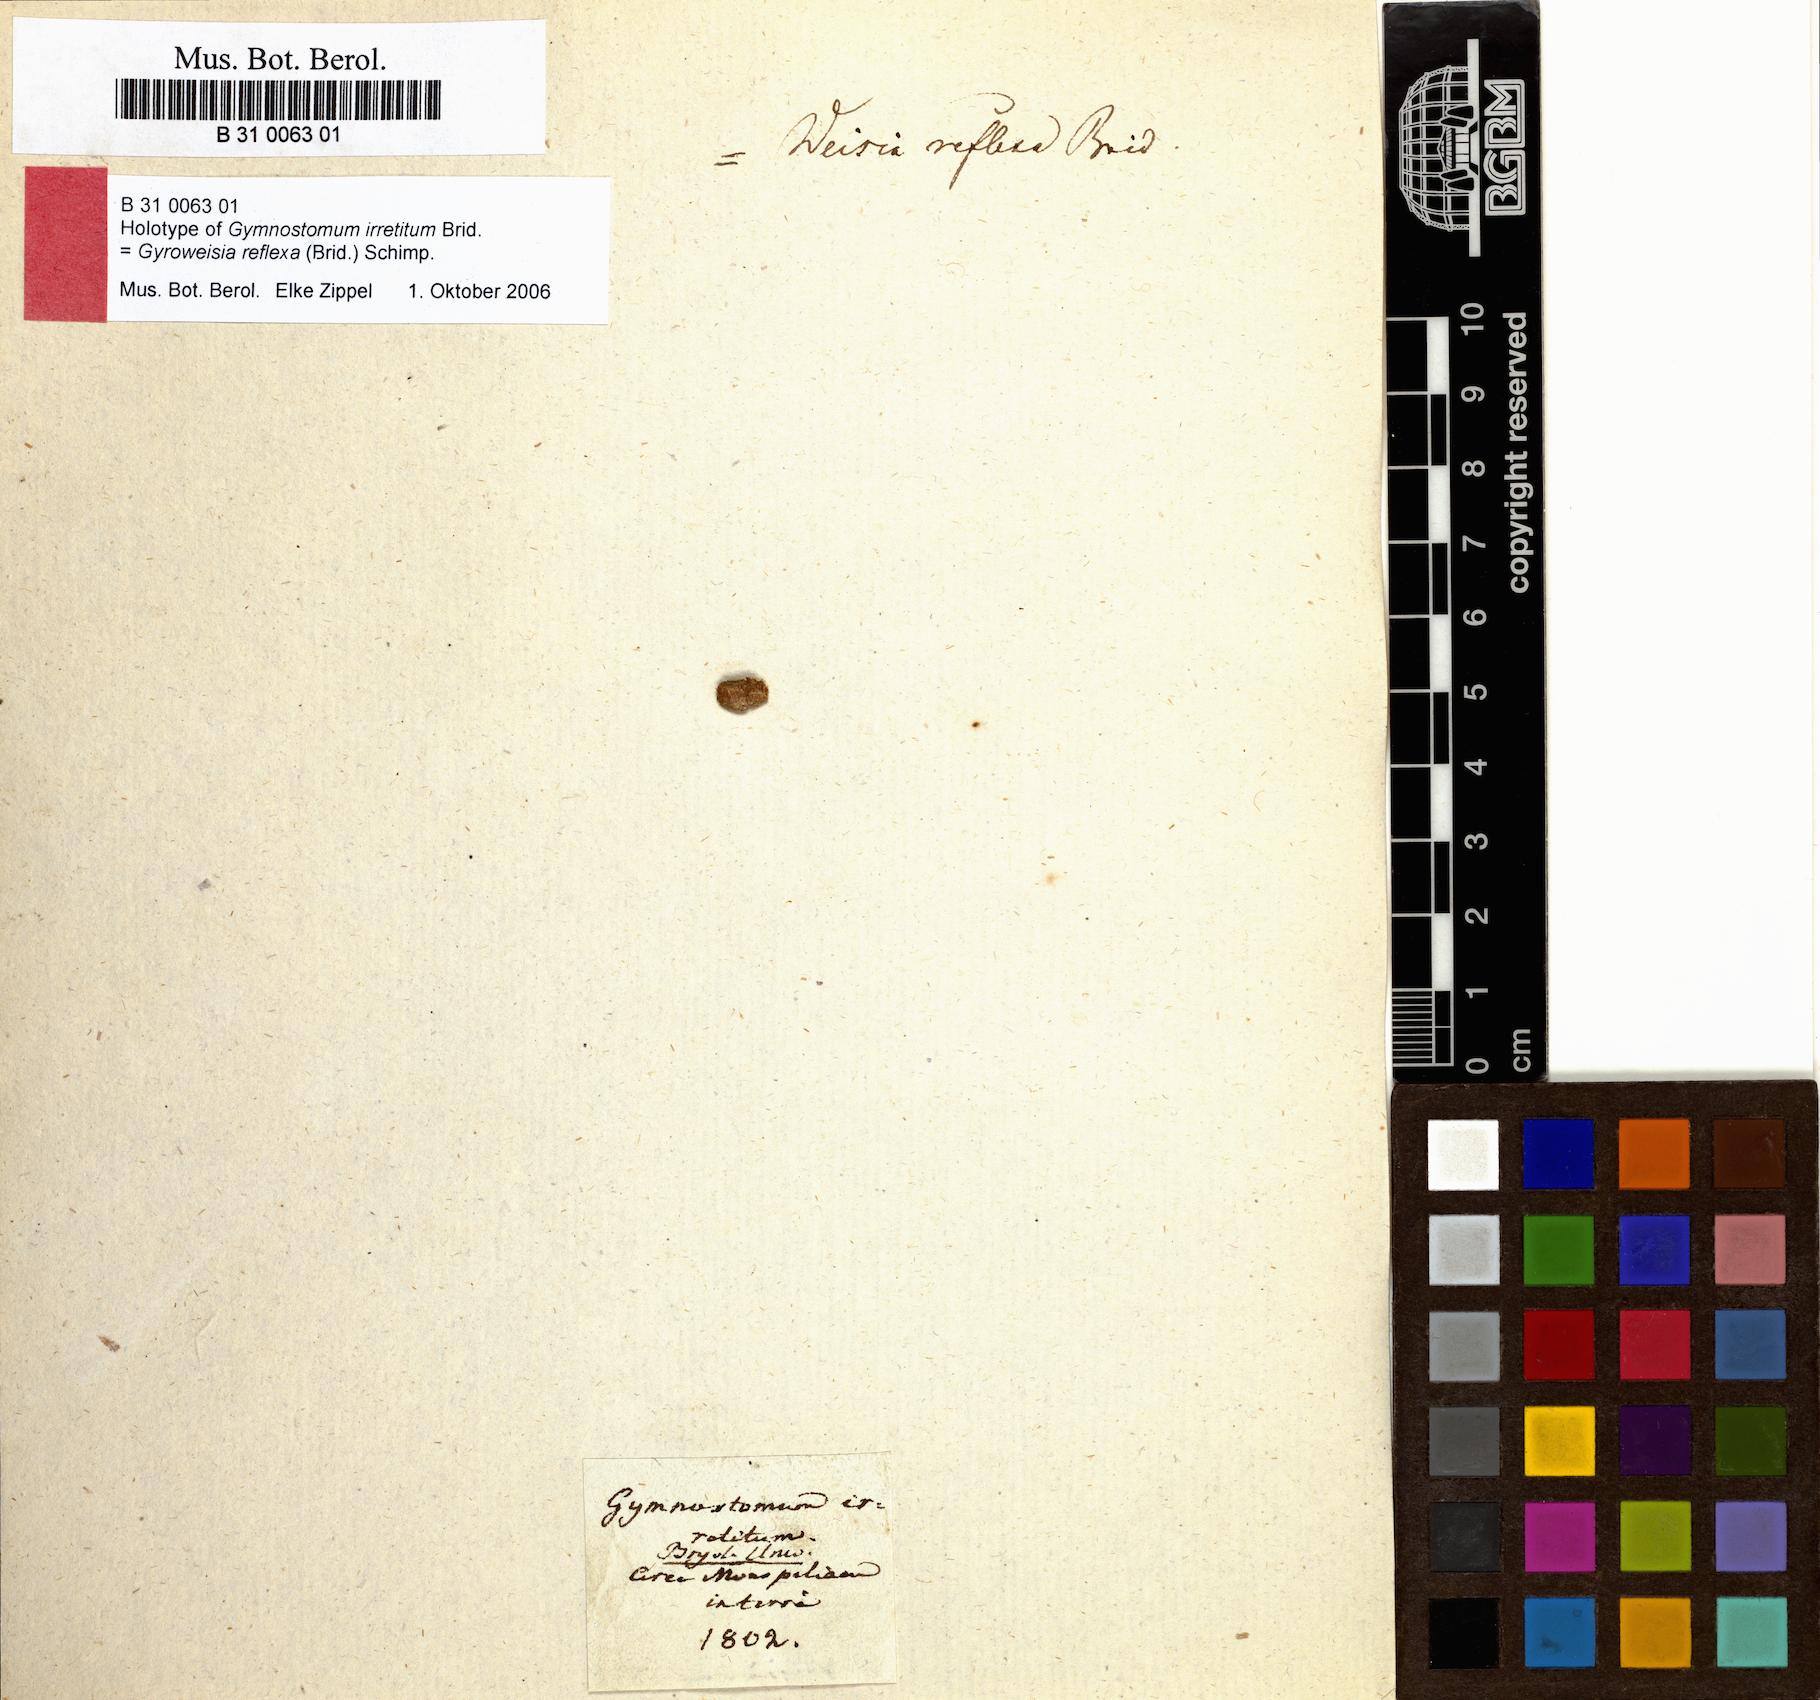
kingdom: Plantae
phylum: Bryophyta
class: Bryopsida
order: Pottiales
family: Pottiaceae
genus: Gyroweisia
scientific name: Gyroweisia reflexa
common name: Reflexed beardless-moss
